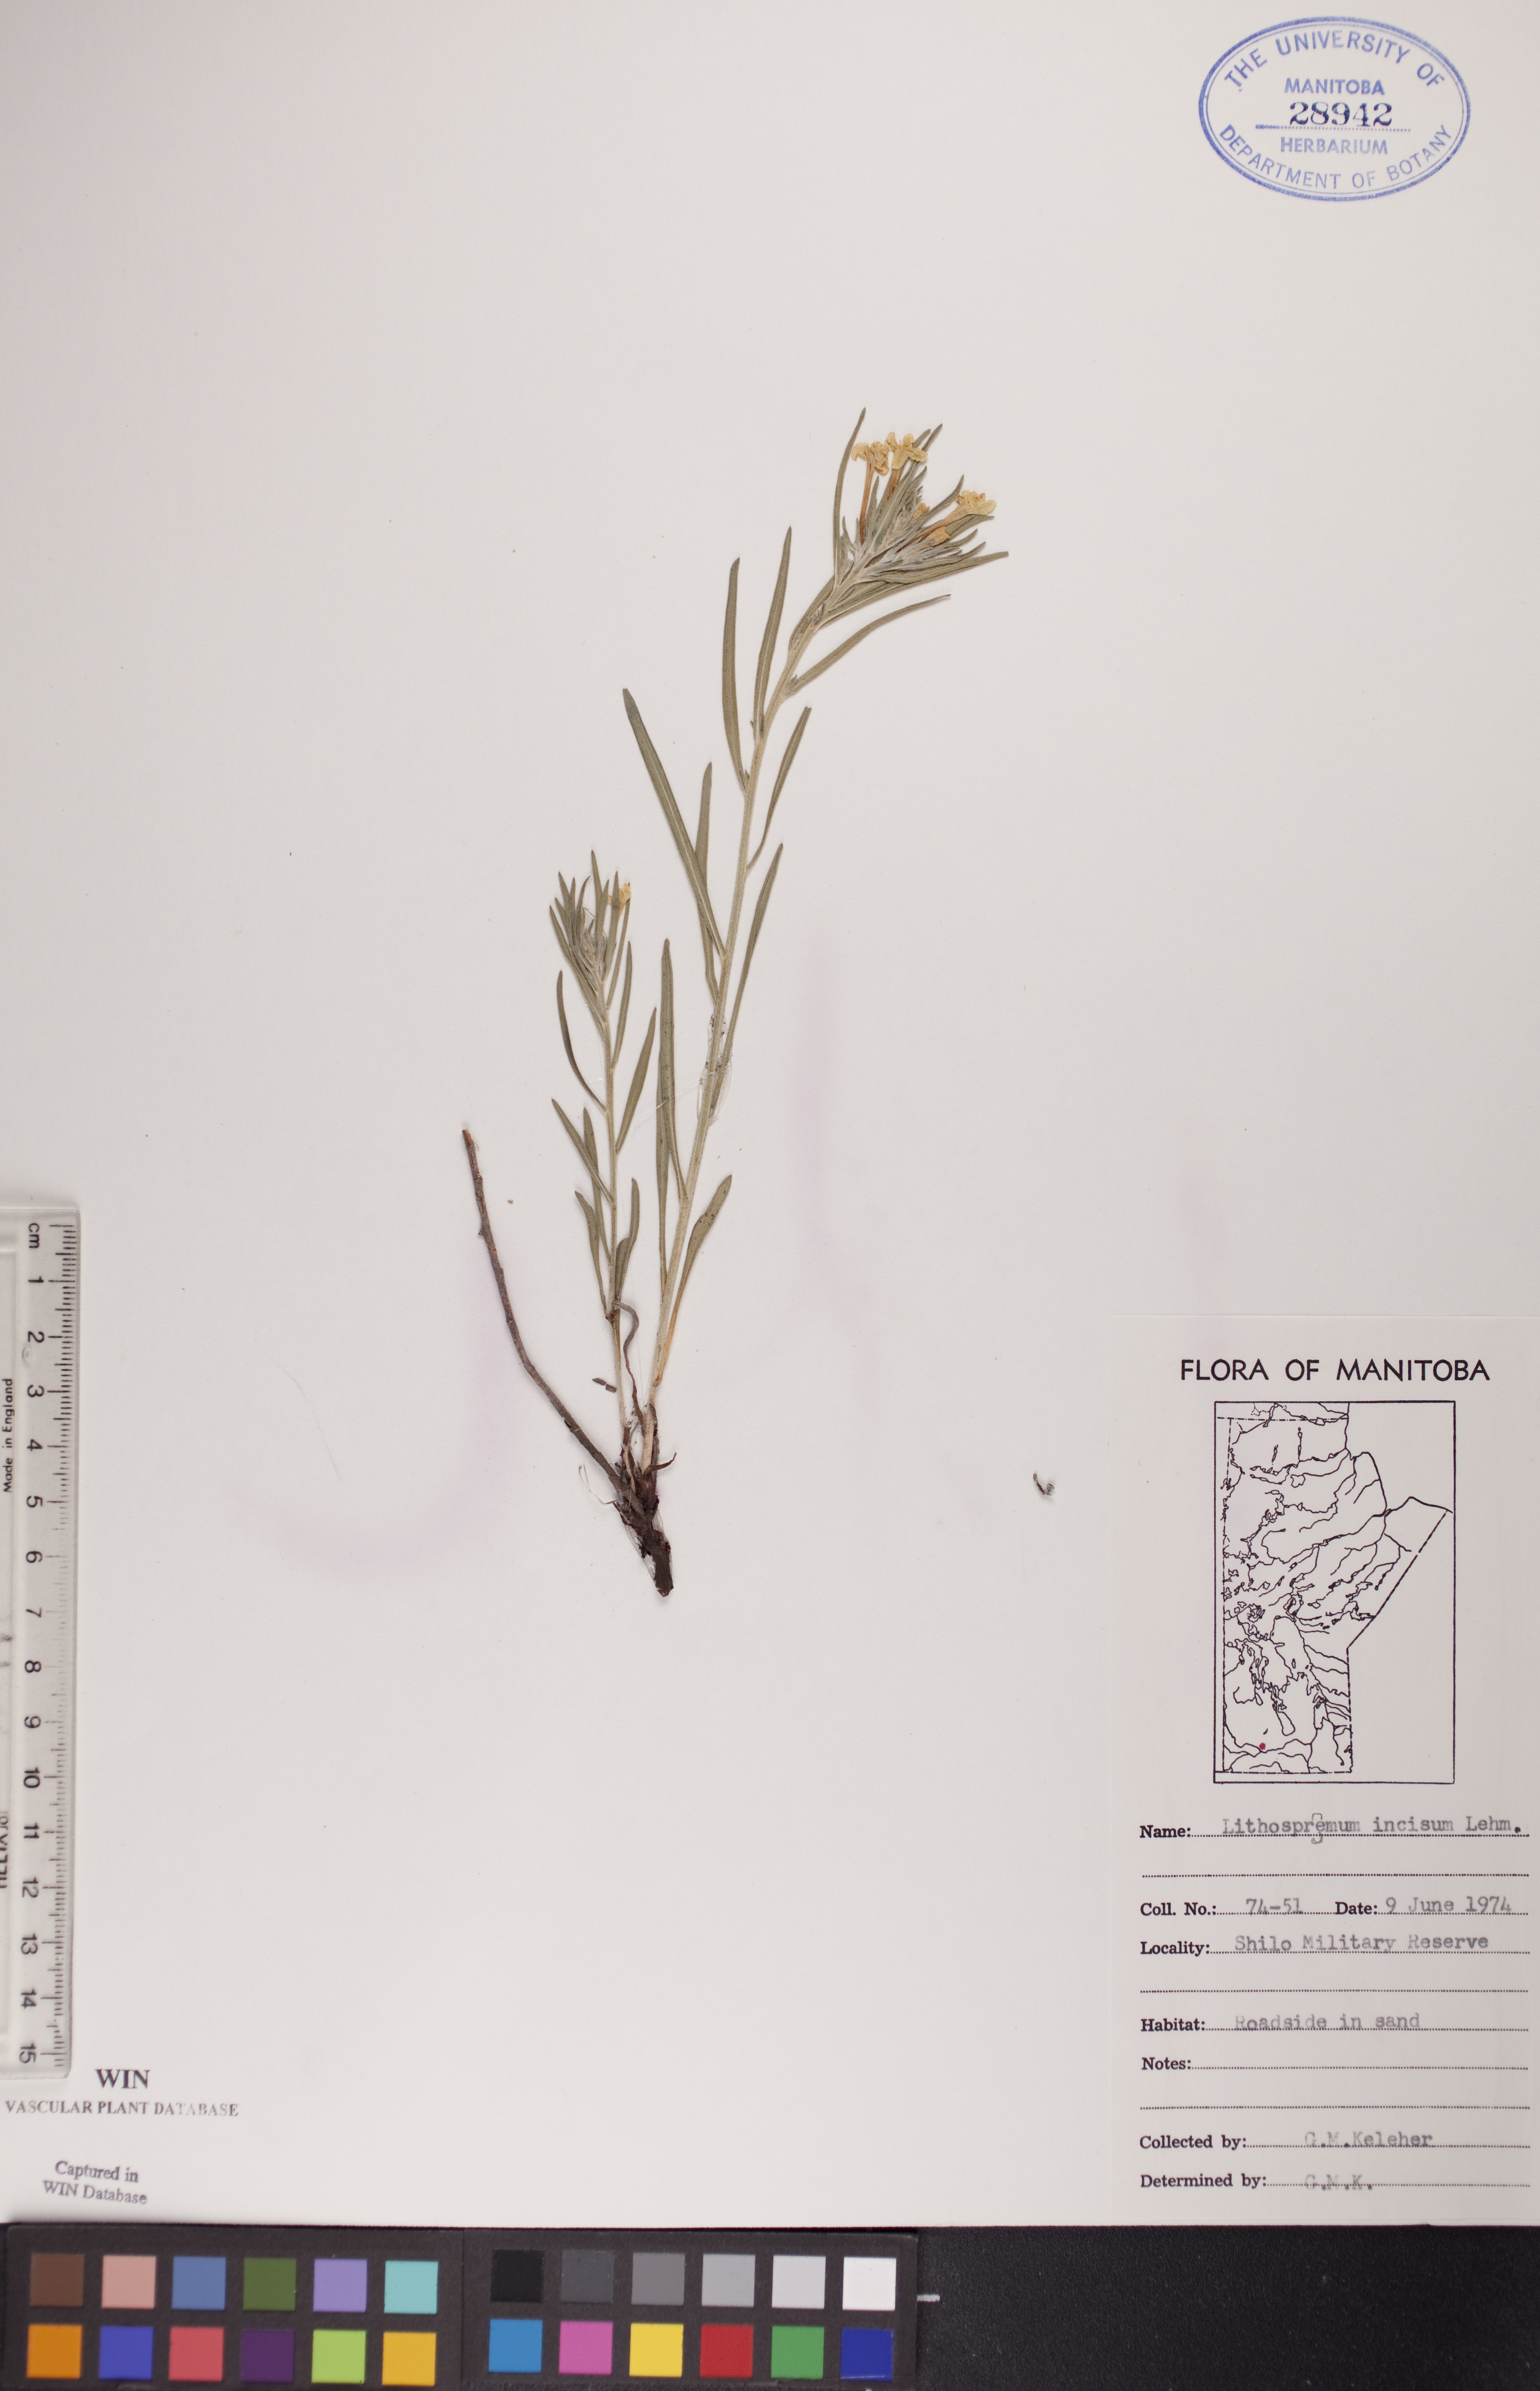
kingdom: Plantae
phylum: Tracheophyta
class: Magnoliopsida
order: Boraginales
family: Boraginaceae
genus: Lithospermum
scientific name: Lithospermum incisum
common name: Fringed gromwell
